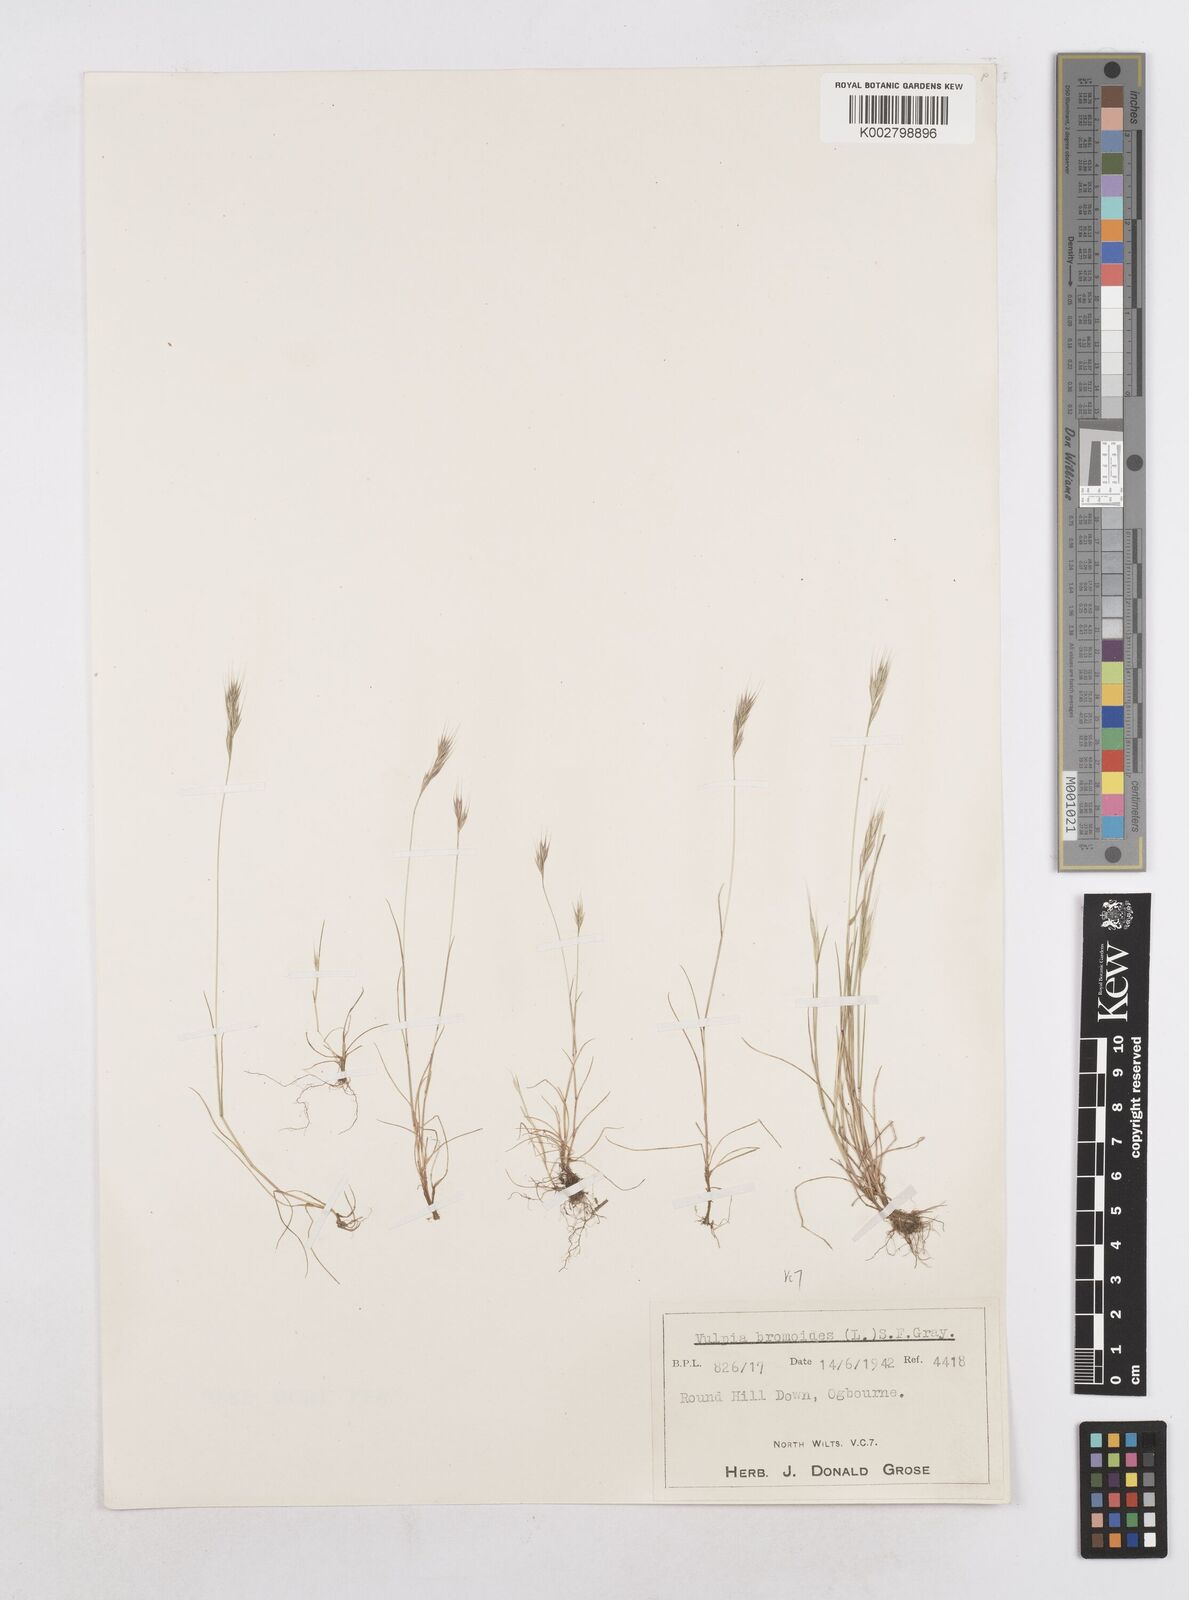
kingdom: Plantae
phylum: Tracheophyta
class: Liliopsida
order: Poales
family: Poaceae
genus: Festuca
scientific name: Festuca bromoides
